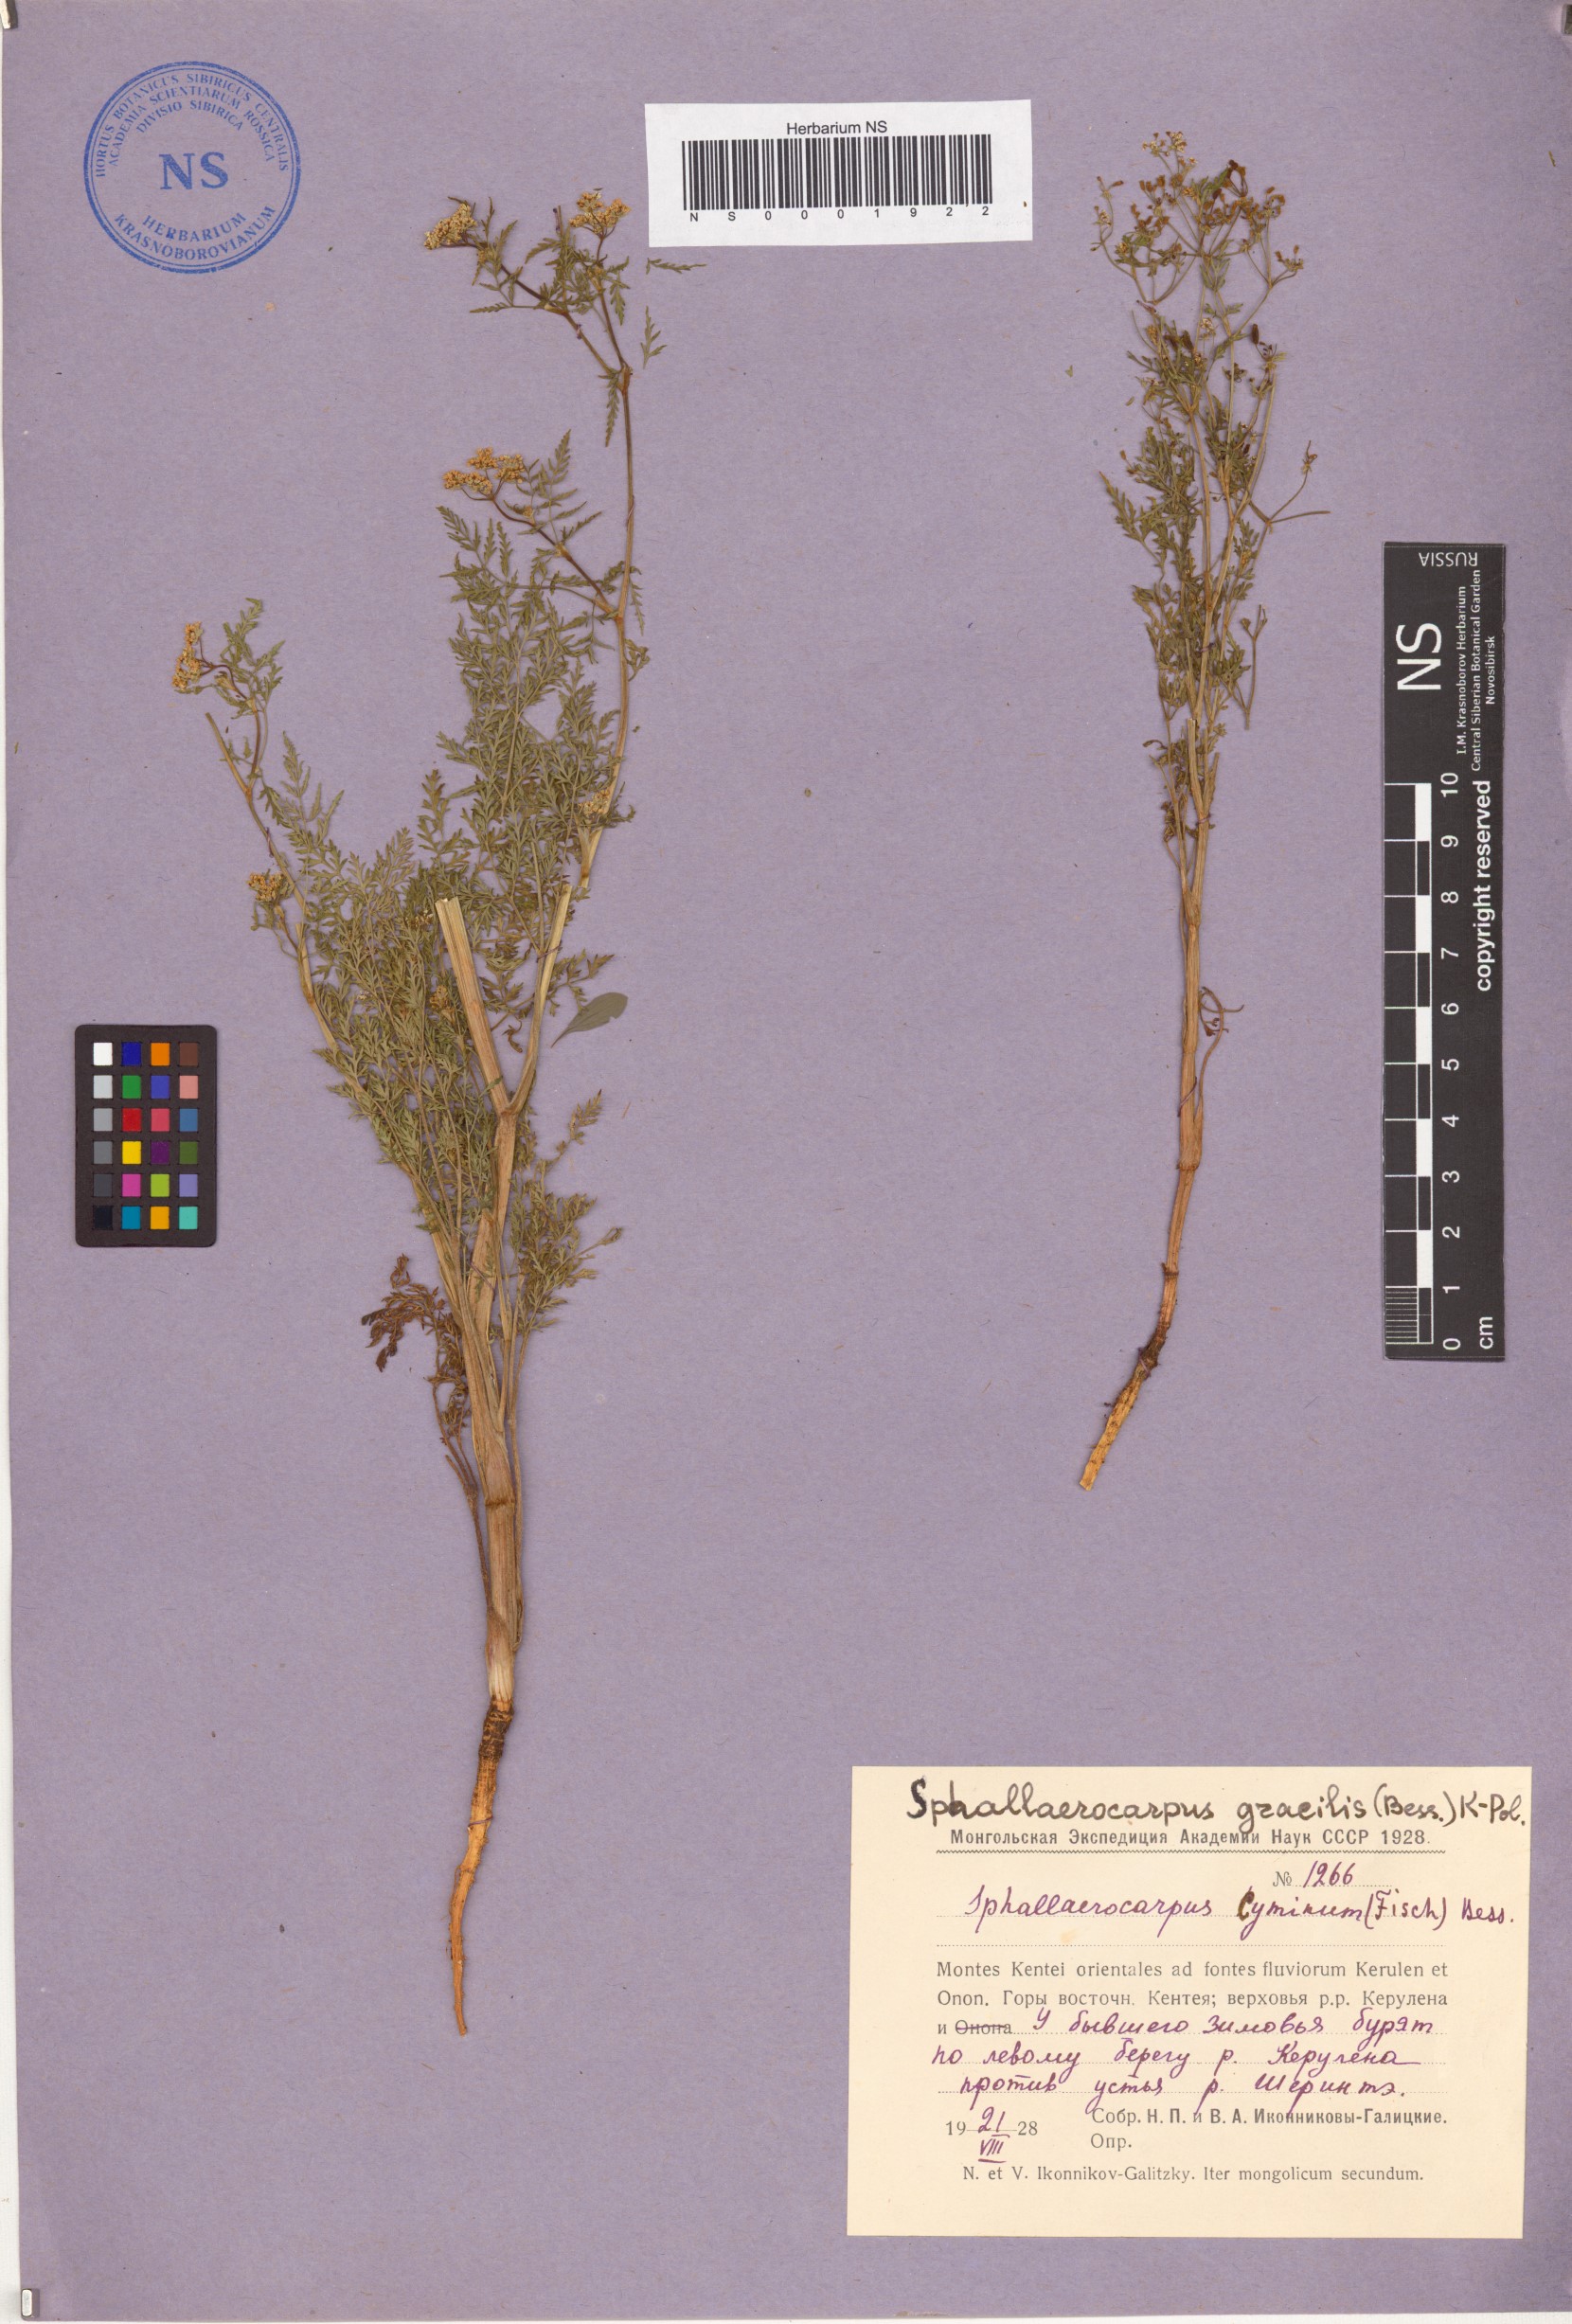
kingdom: Plantae
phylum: Tracheophyta
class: Magnoliopsida
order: Apiales
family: Apiaceae
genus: Sphallerocarpus
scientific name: Sphallerocarpus gracilis
